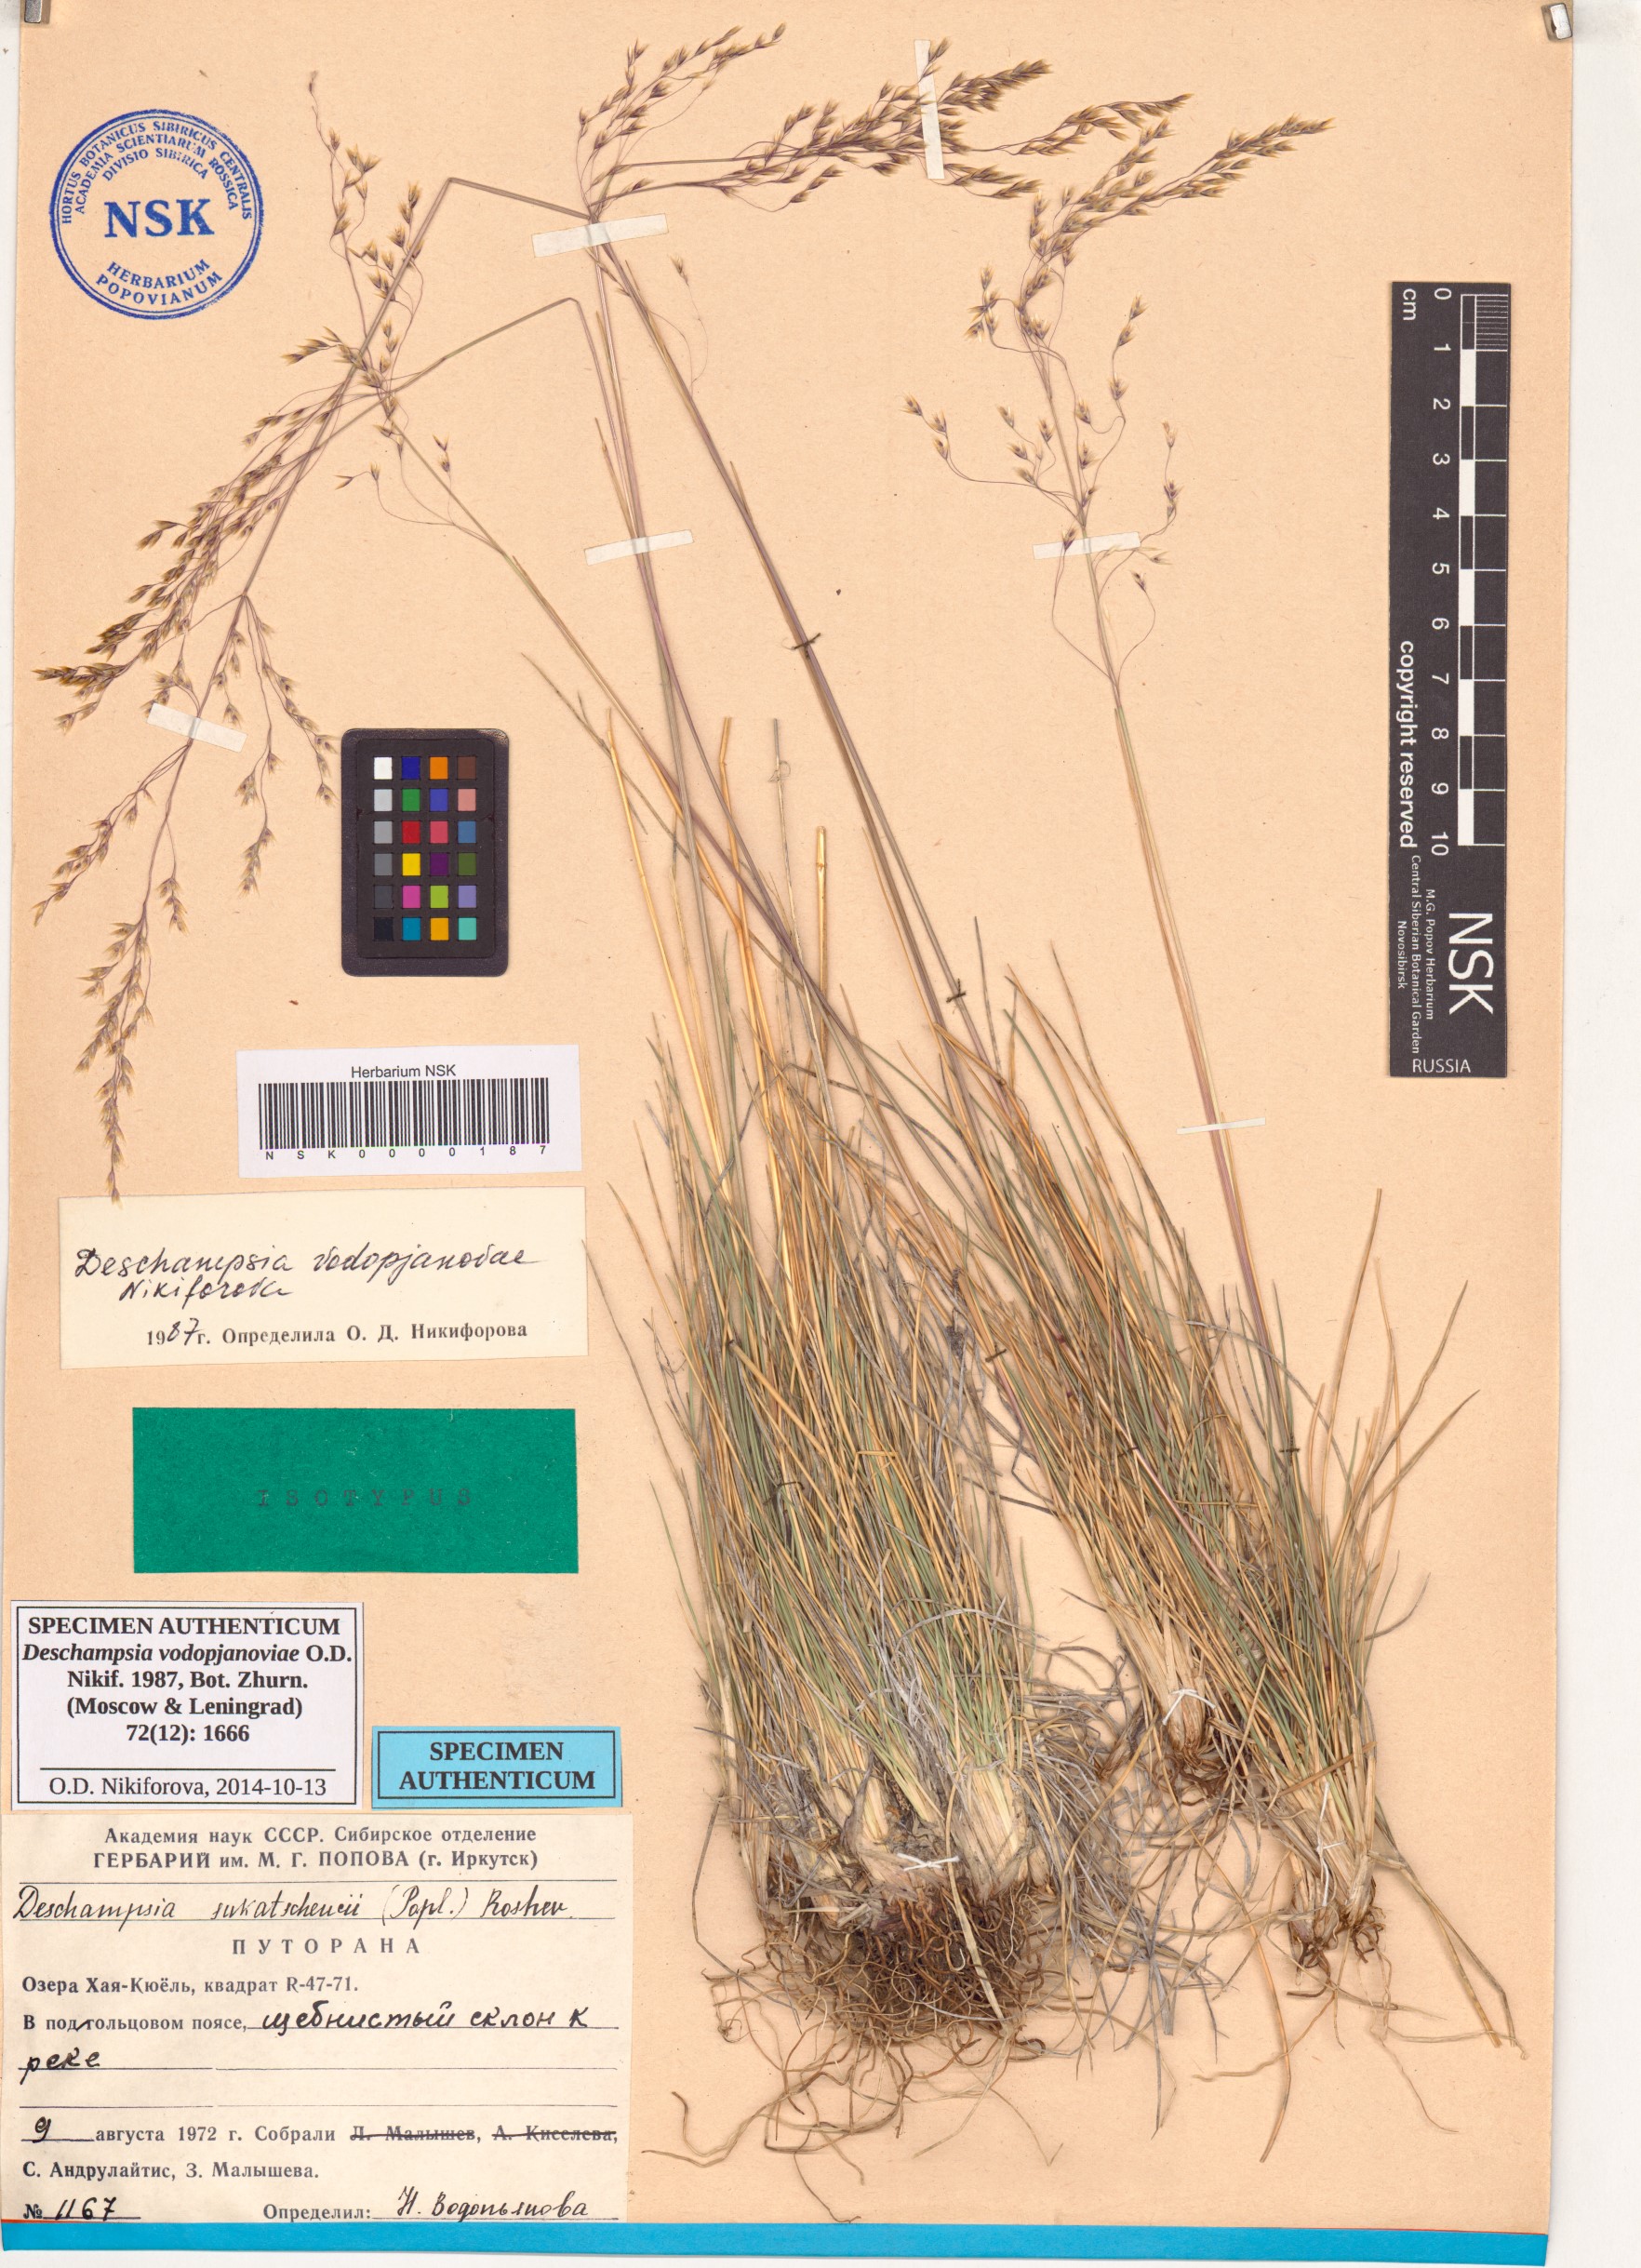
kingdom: Plantae
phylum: Tracheophyta
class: Liliopsida
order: Poales
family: Poaceae
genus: Deschampsia
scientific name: Deschampsia cespitosa
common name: Tufted hair-grass
